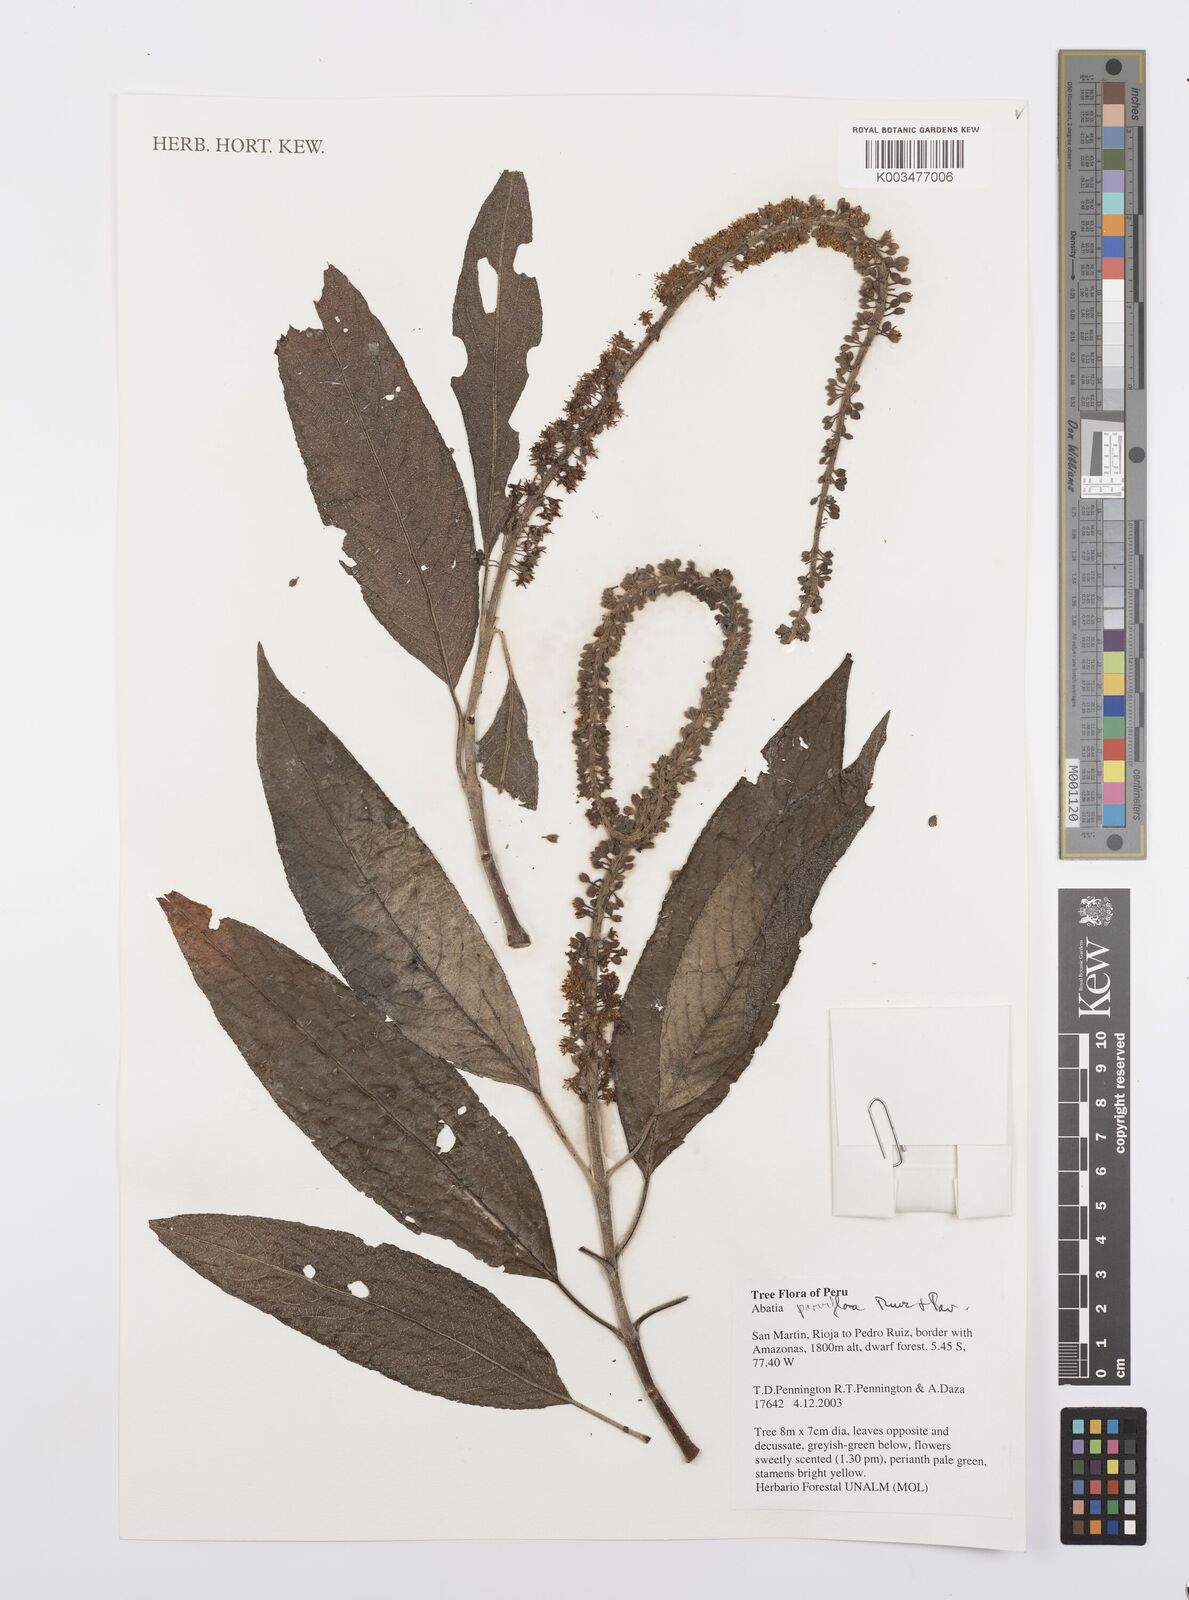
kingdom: Plantae
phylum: Tracheophyta
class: Magnoliopsida
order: Malpighiales
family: Salicaceae
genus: Abatia
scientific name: Abatia parviflora
